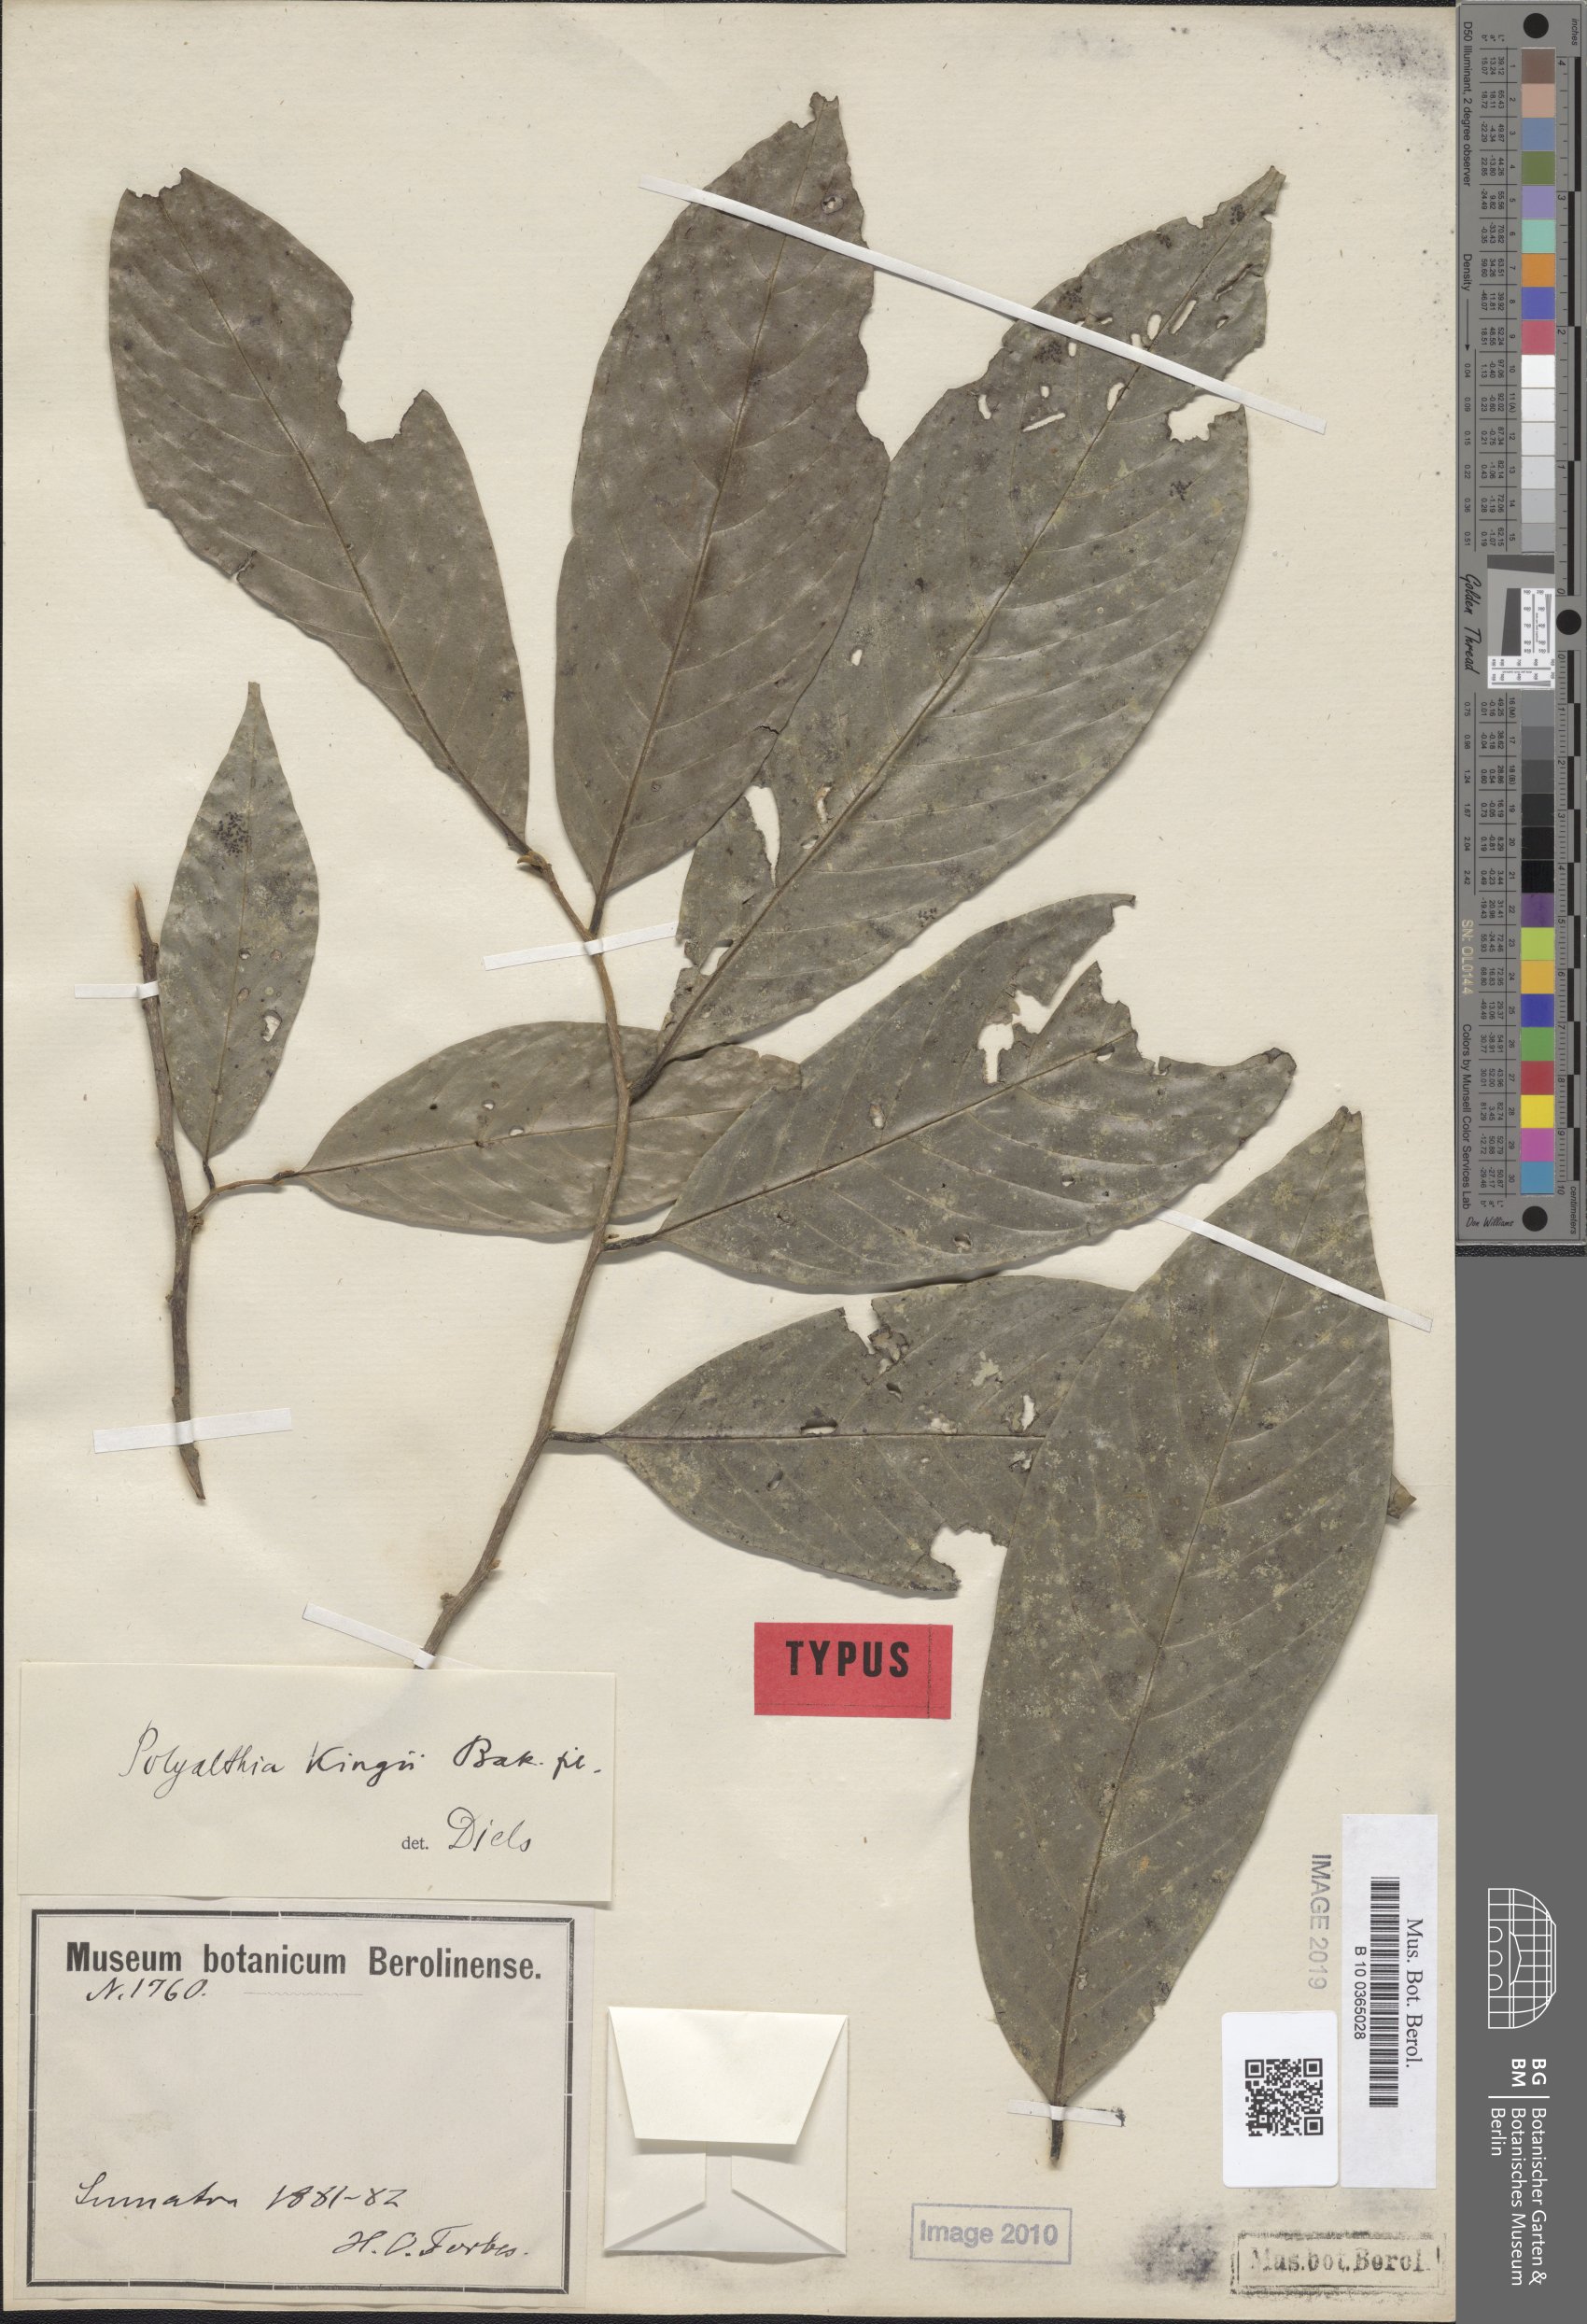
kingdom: Plantae
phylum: Tracheophyta
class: Magnoliopsida
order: Magnoliales
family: Annonaceae
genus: Polyalthia
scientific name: Polyalthia kingii
